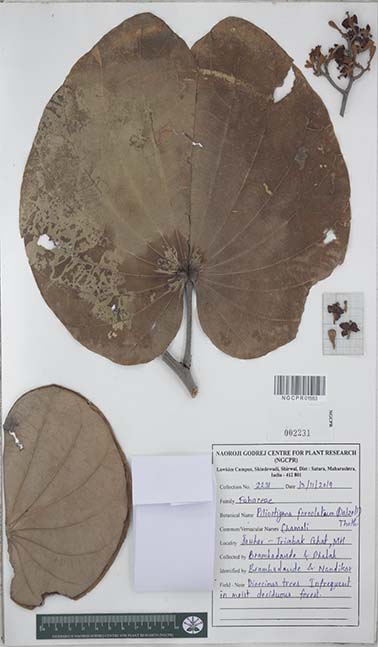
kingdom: Plantae
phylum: Tracheophyta
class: Magnoliopsida
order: Fabales
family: Fabaceae
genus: Piliostigma
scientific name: Piliostigma foveolatum
